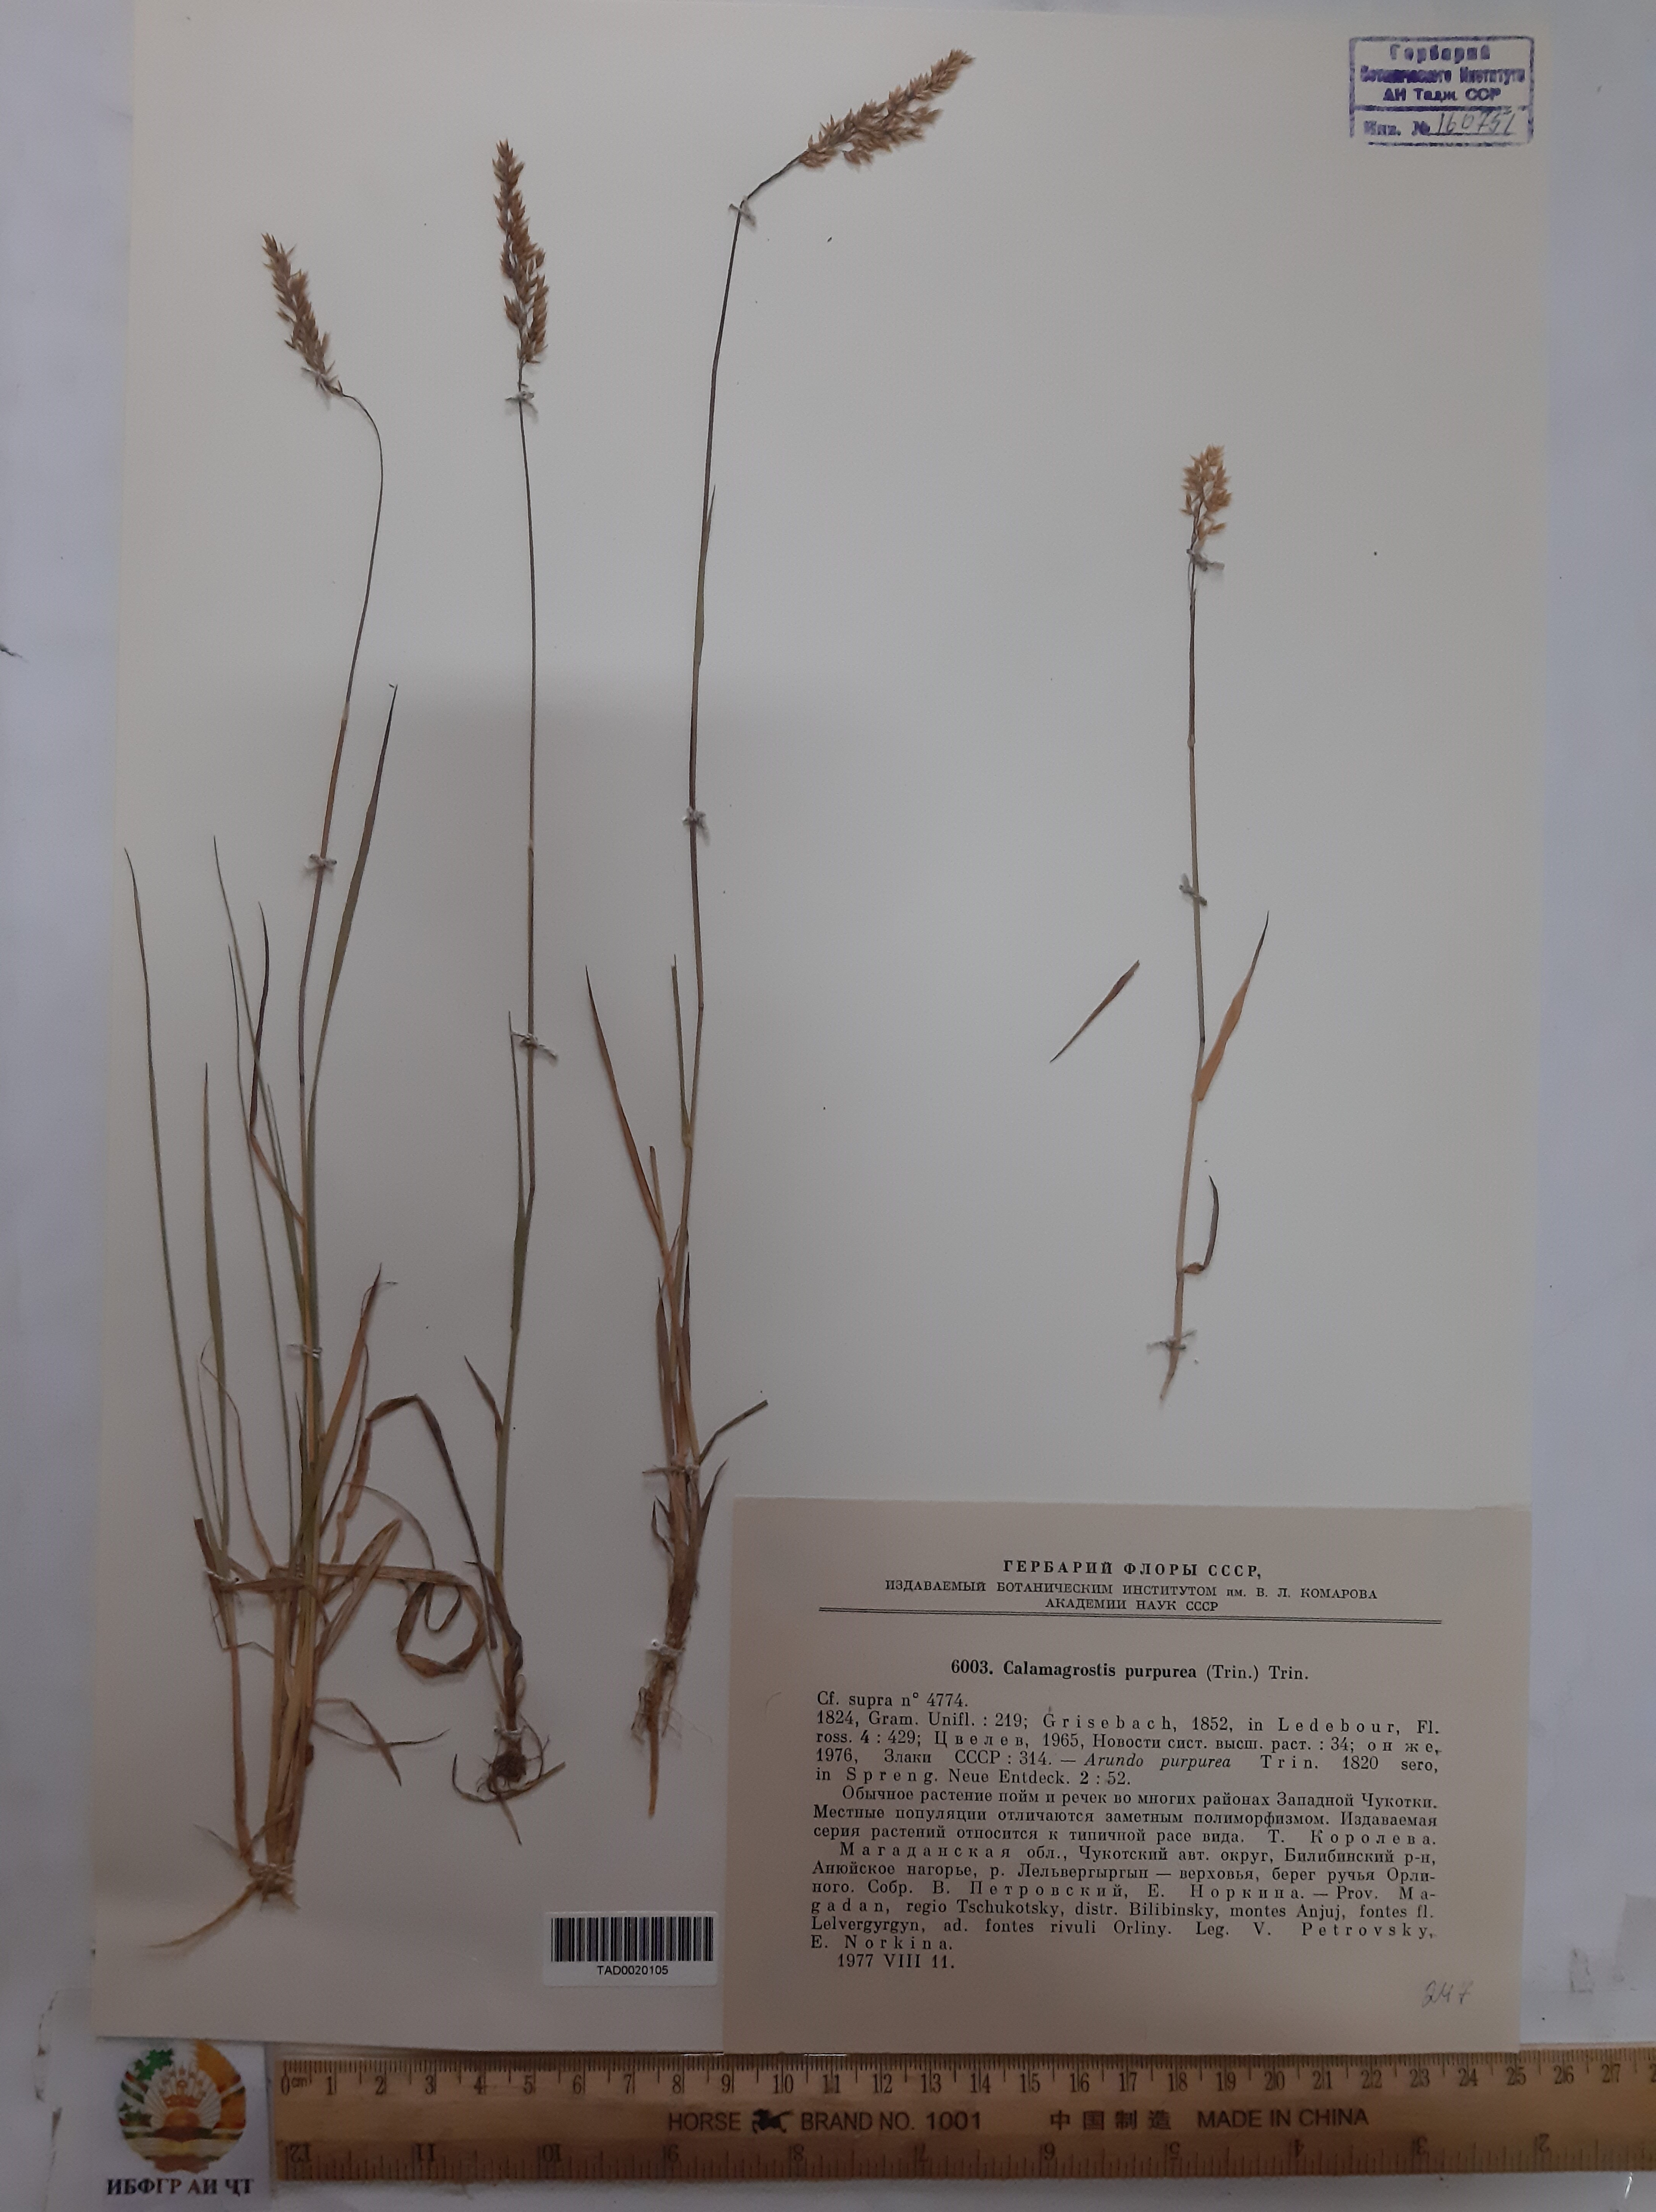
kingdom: Plantae
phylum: Tracheophyta
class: Liliopsida
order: Poales
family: Poaceae
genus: Calamagrostis
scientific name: Calamagrostis purpurea
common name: Scandinavian small-reed
